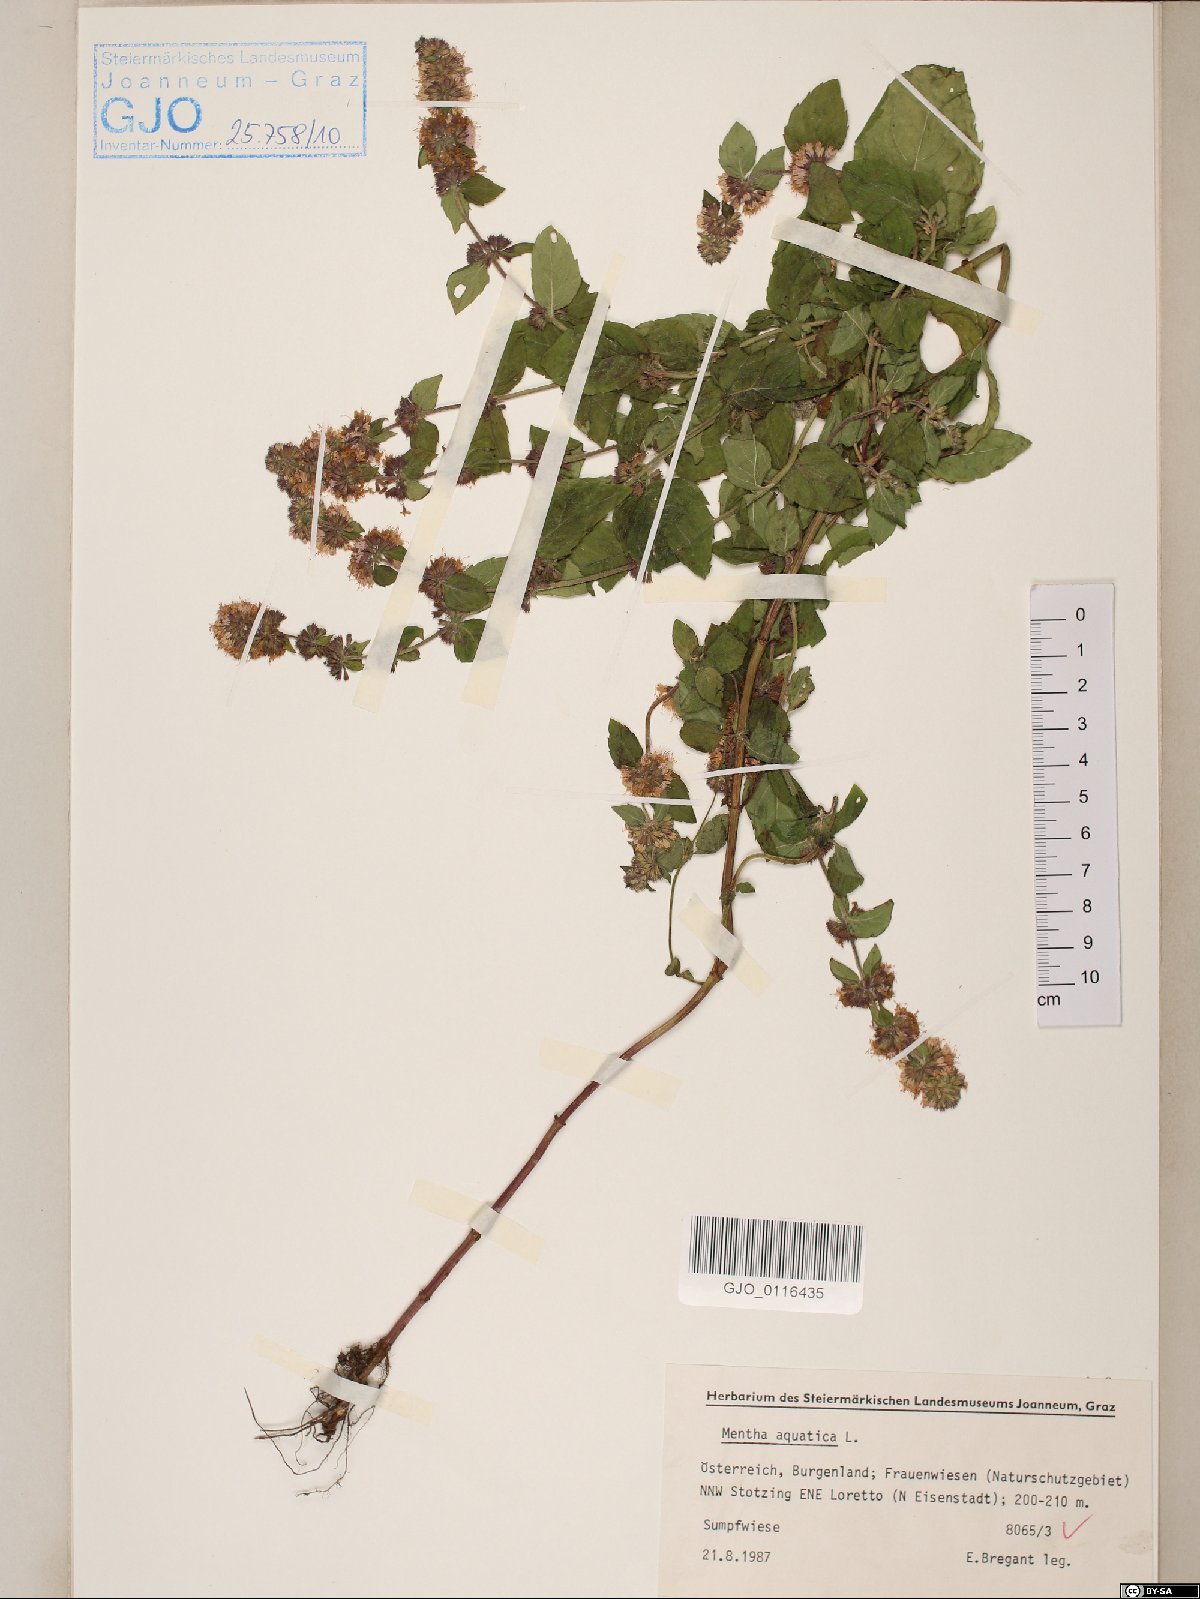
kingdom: Plantae
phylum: Tracheophyta
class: Magnoliopsida
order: Lamiales
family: Lamiaceae
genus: Mentha
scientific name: Mentha aquatica
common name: Water mint
